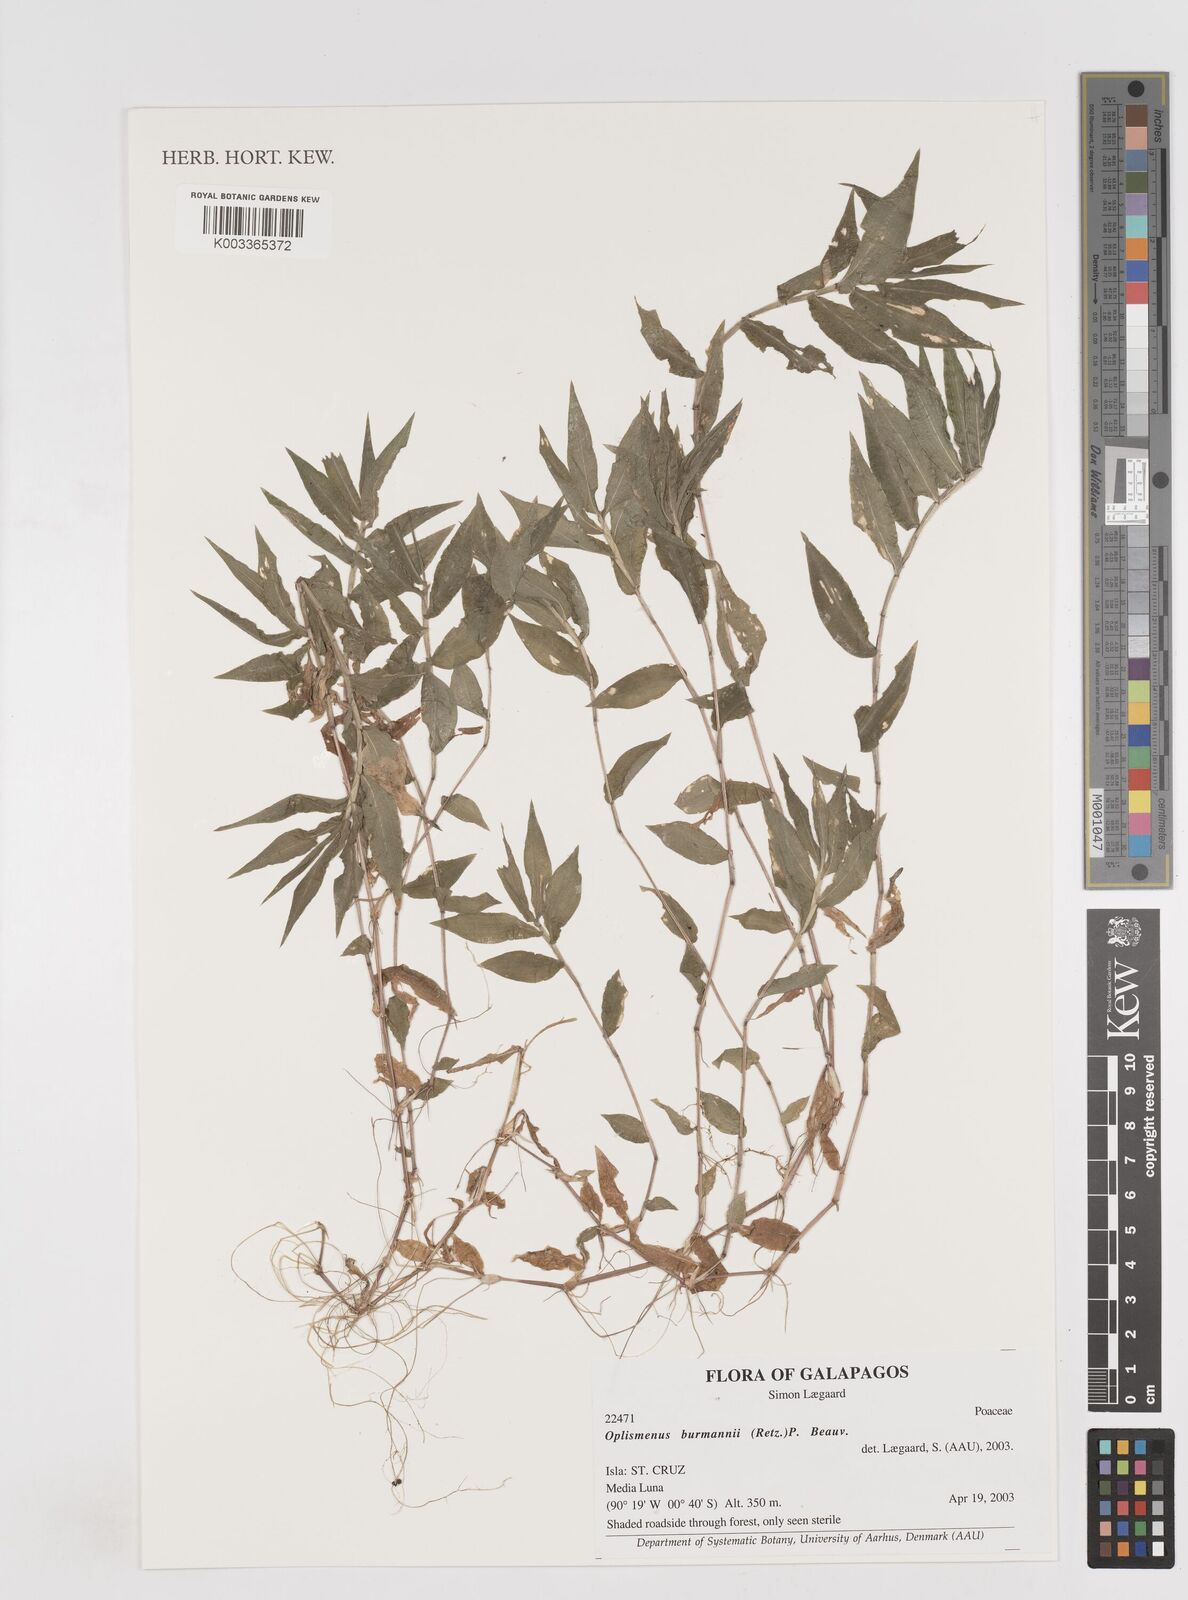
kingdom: Plantae
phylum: Tracheophyta
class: Liliopsida
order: Poales
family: Poaceae
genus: Oplismenus
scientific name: Oplismenus burmanni
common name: Burmann's basketgrass
